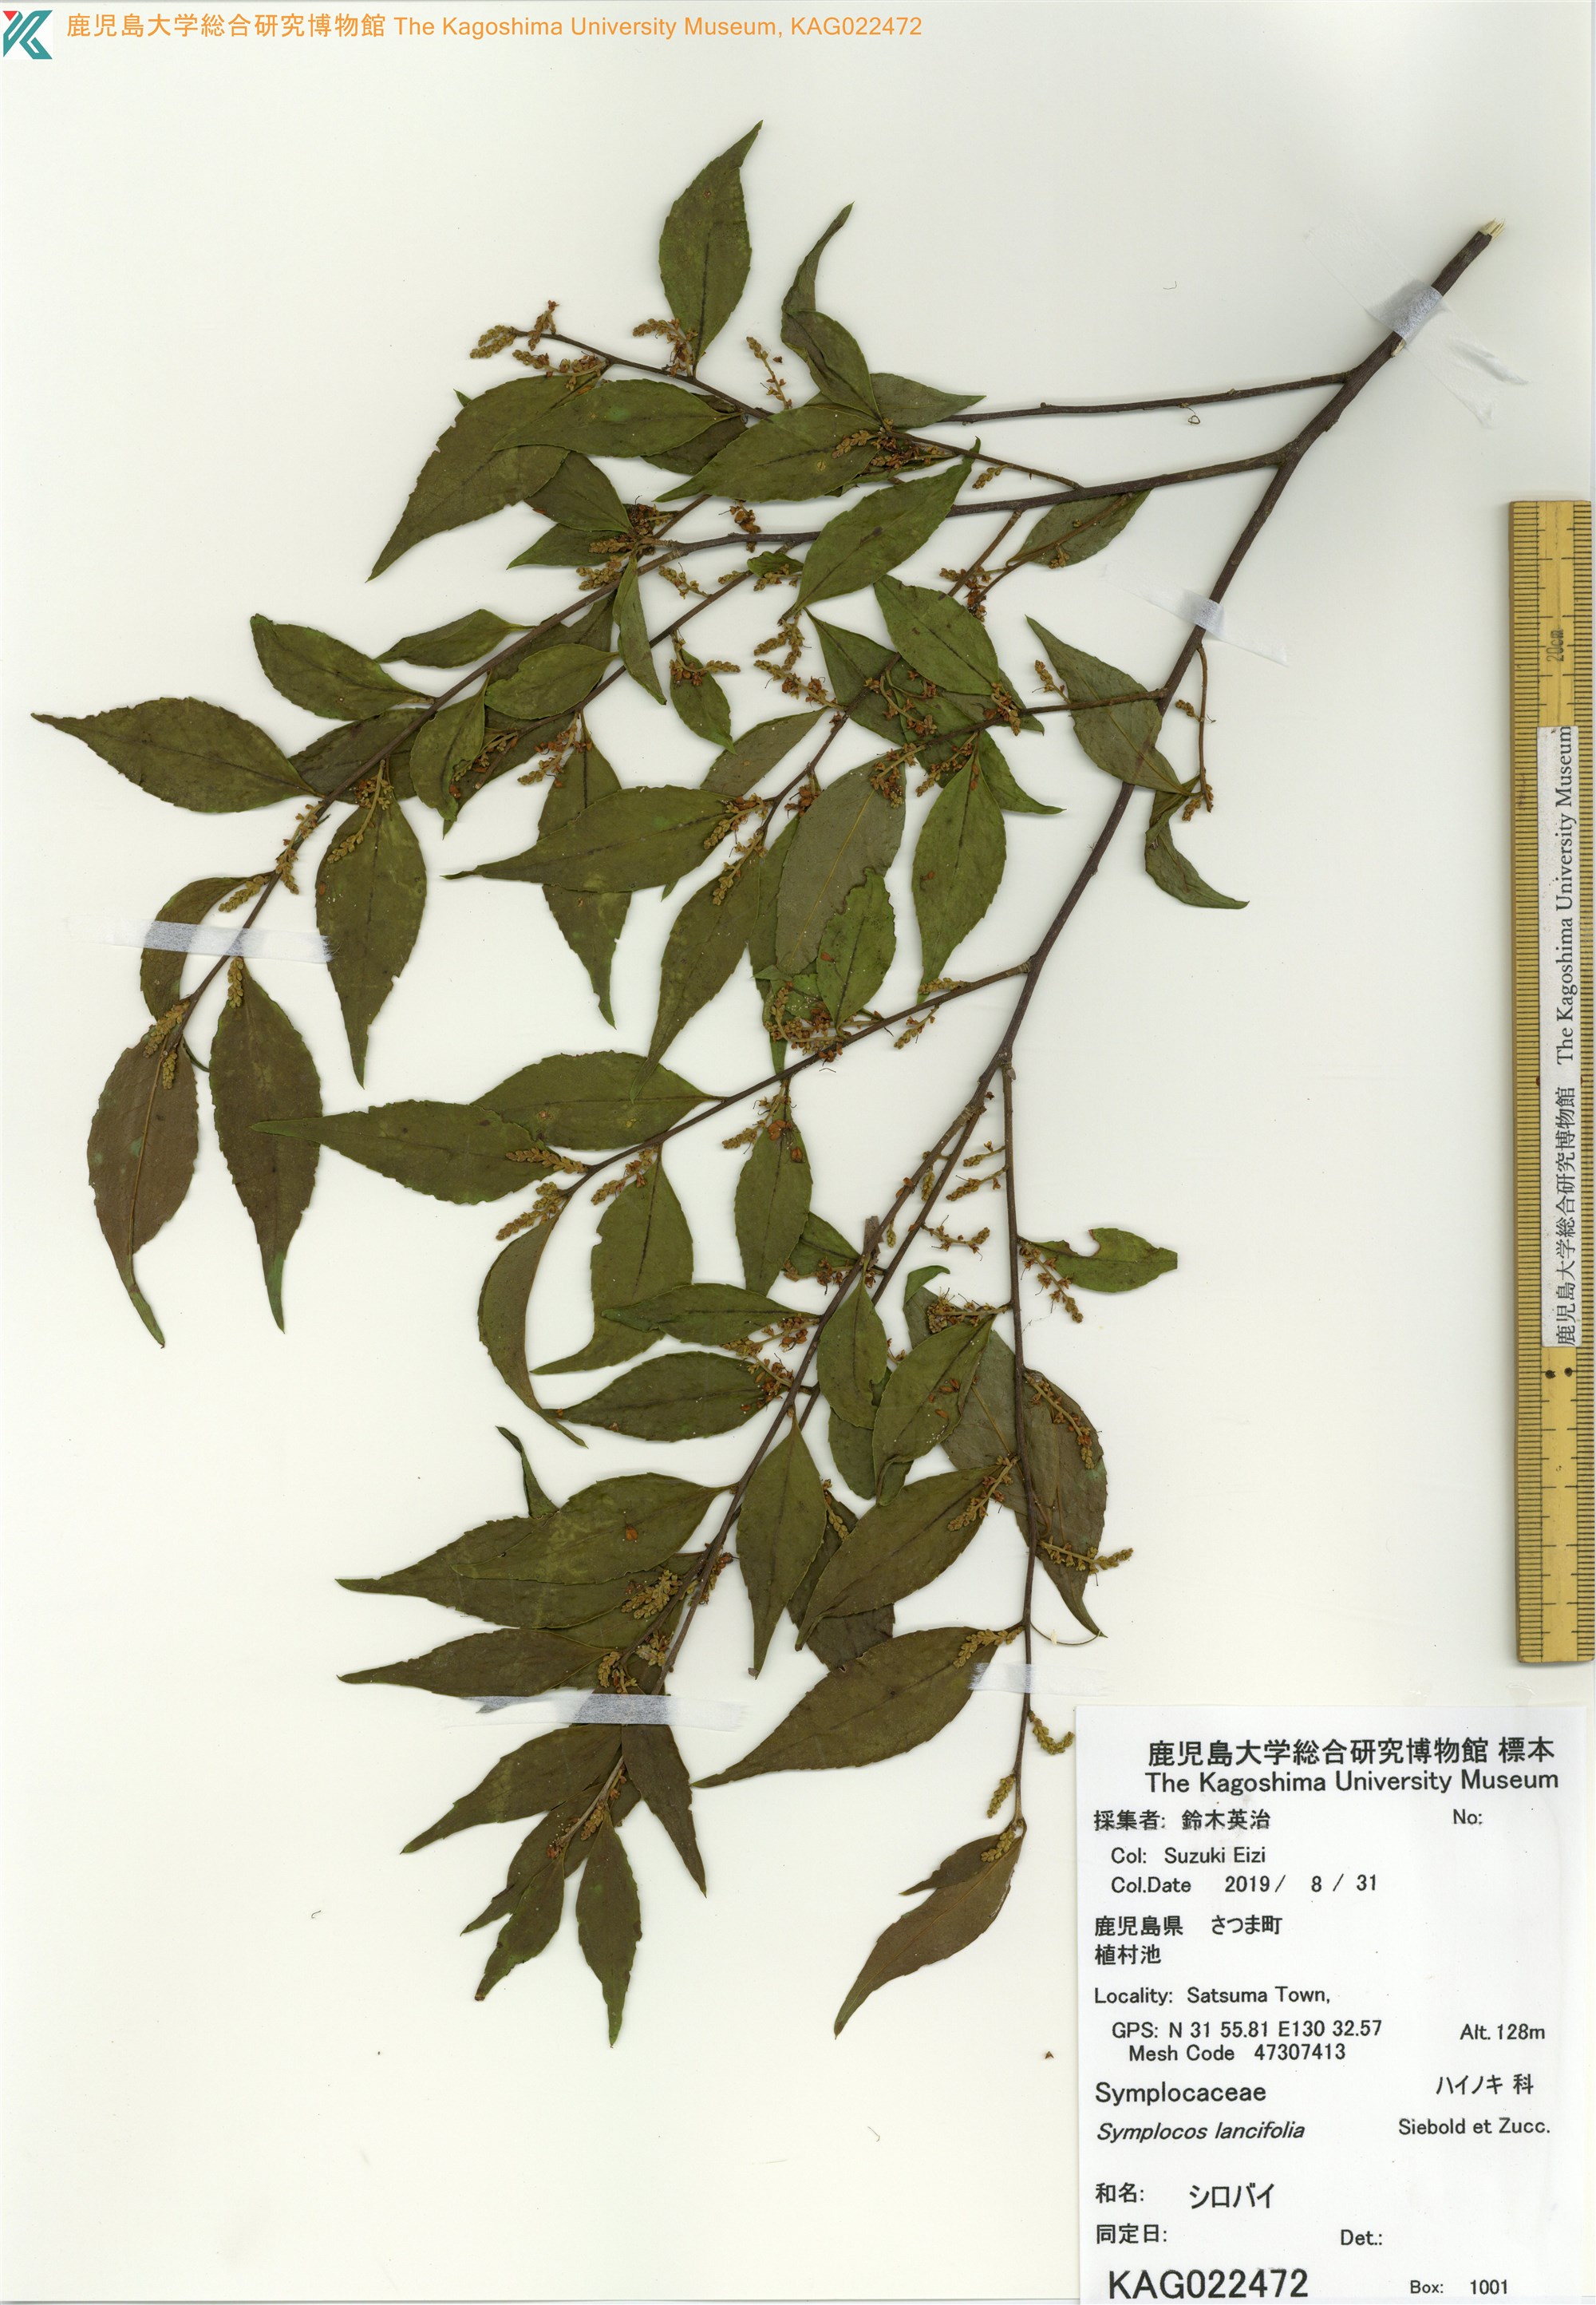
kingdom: Plantae
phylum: Tracheophyta
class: Magnoliopsida
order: Ericales
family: Symplocaceae
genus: Symplocos
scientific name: Symplocos lancifolia
